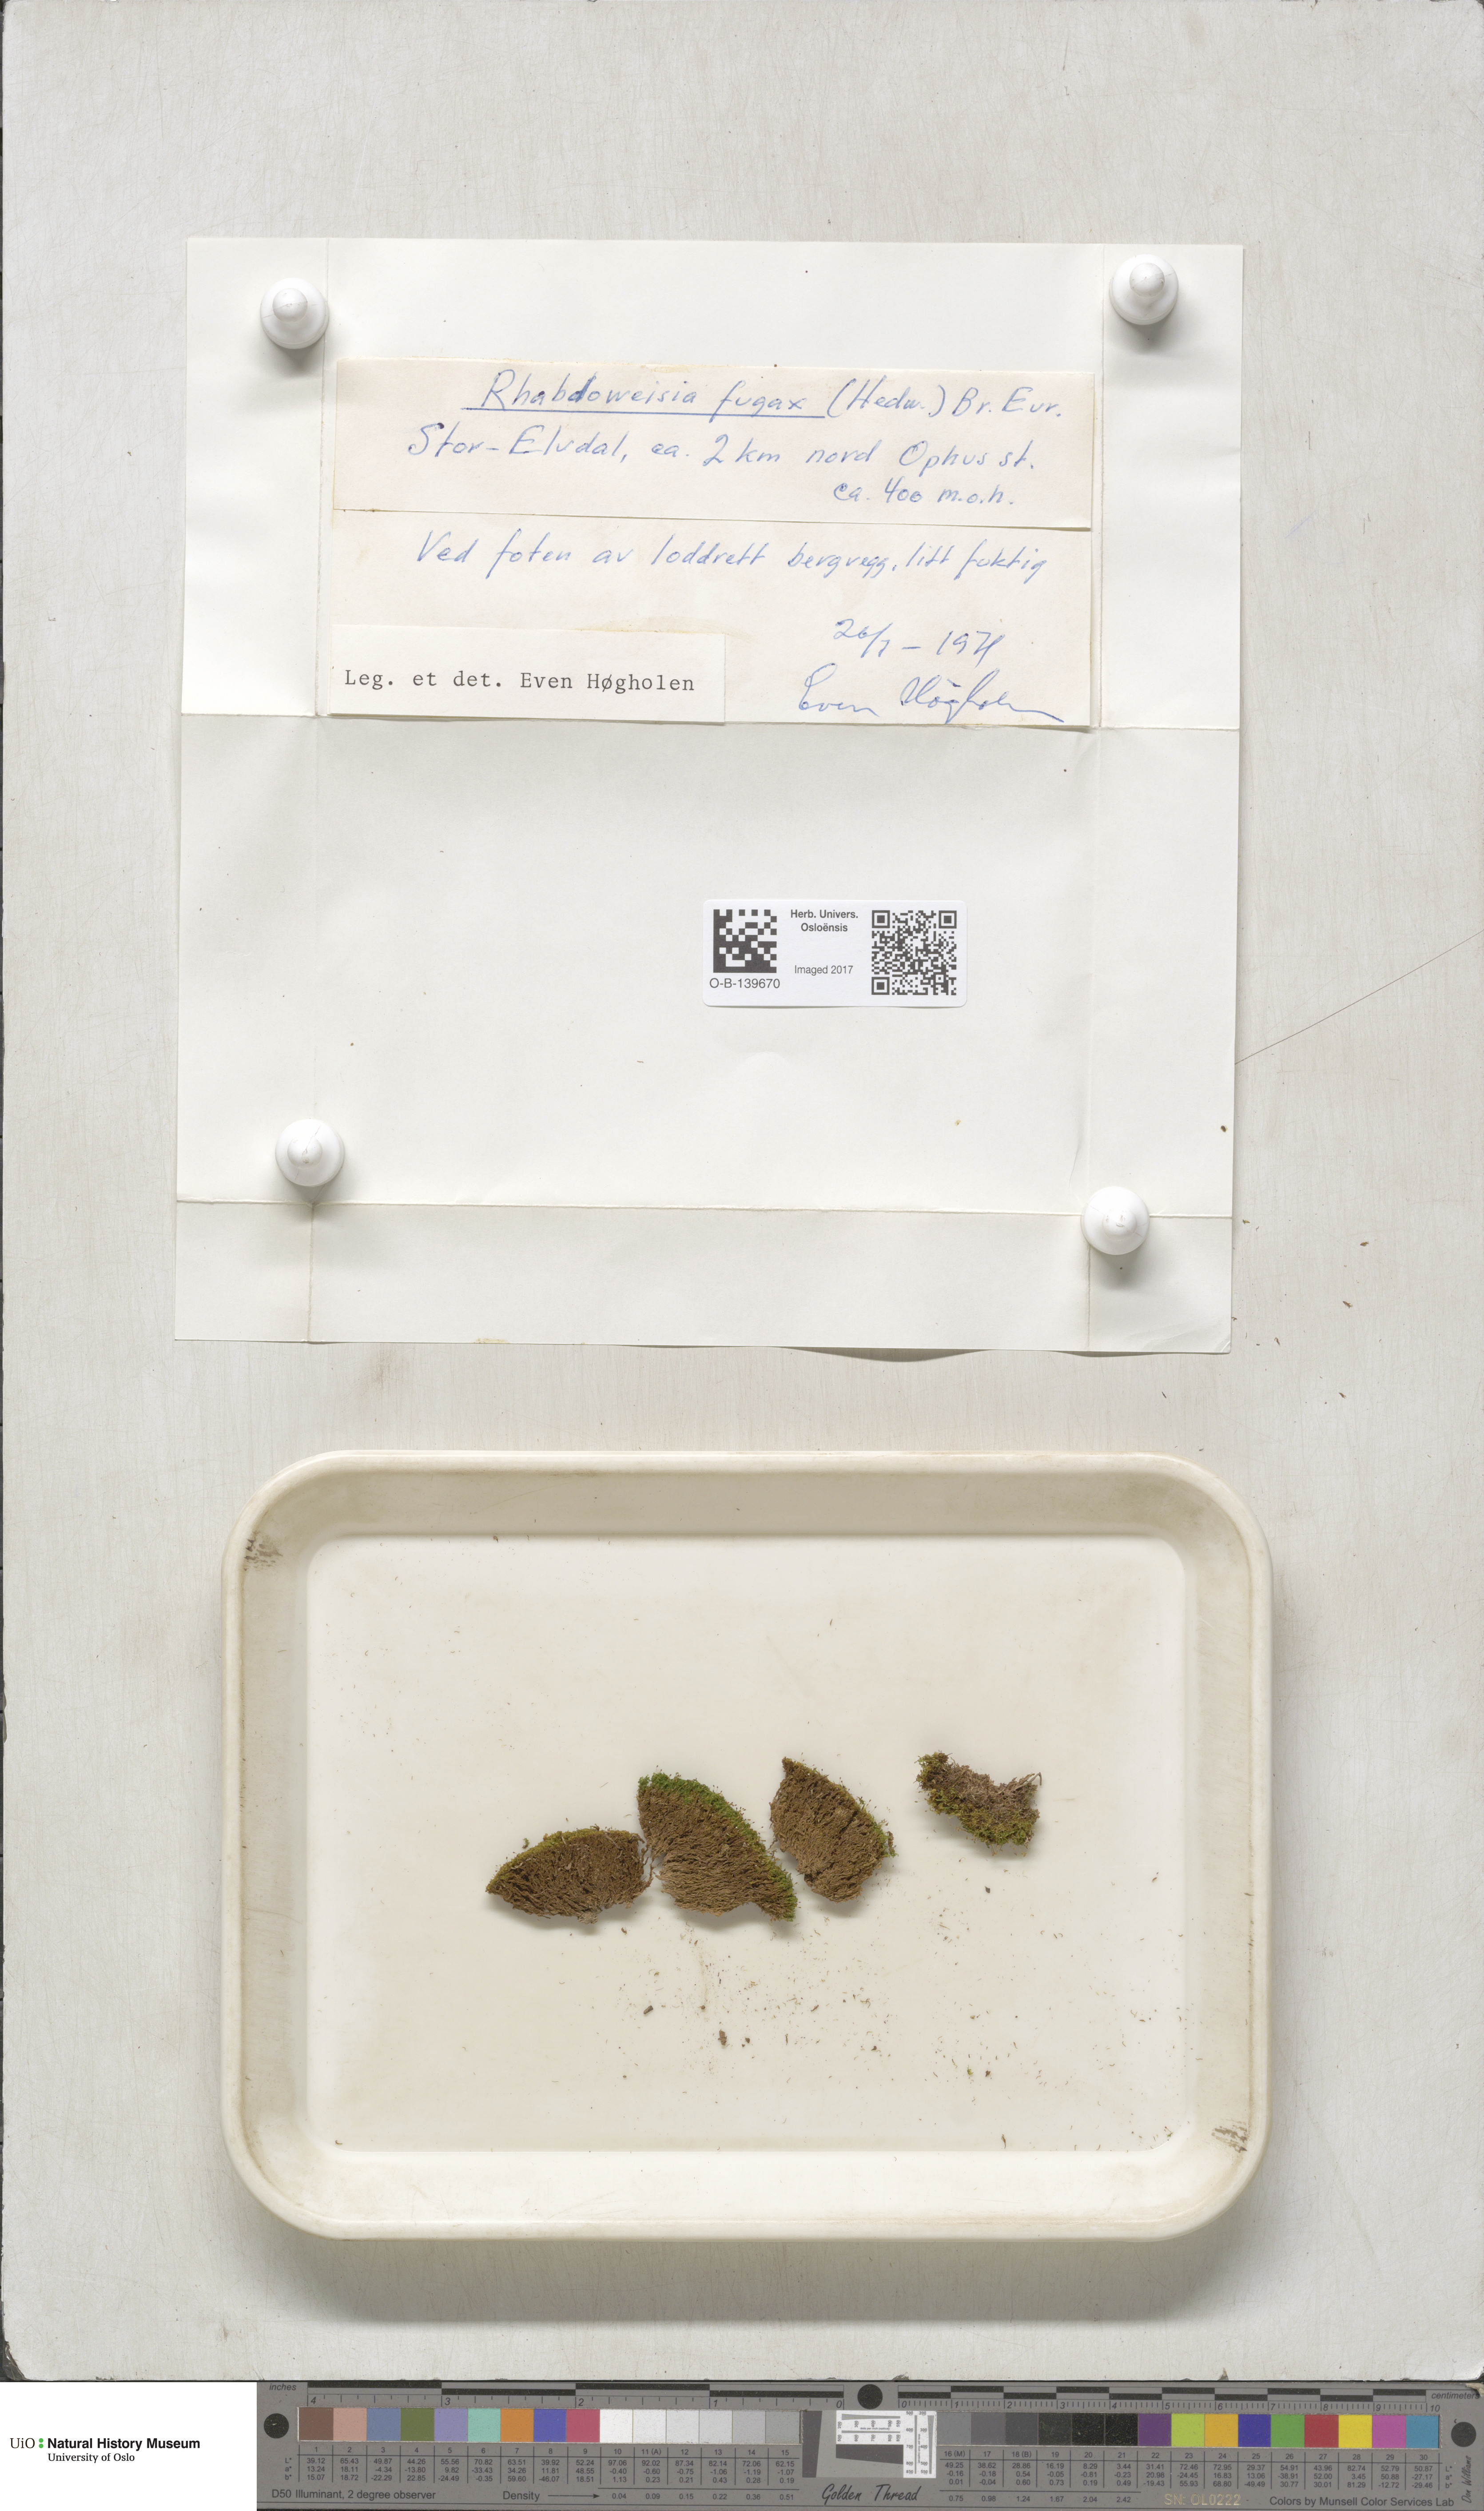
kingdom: Plantae
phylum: Bryophyta
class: Bryopsida
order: Dicranales
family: Rhabdoweisiaceae
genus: Rhabdoweisia
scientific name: Rhabdoweisia fugax
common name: Dwarf streak-moss
